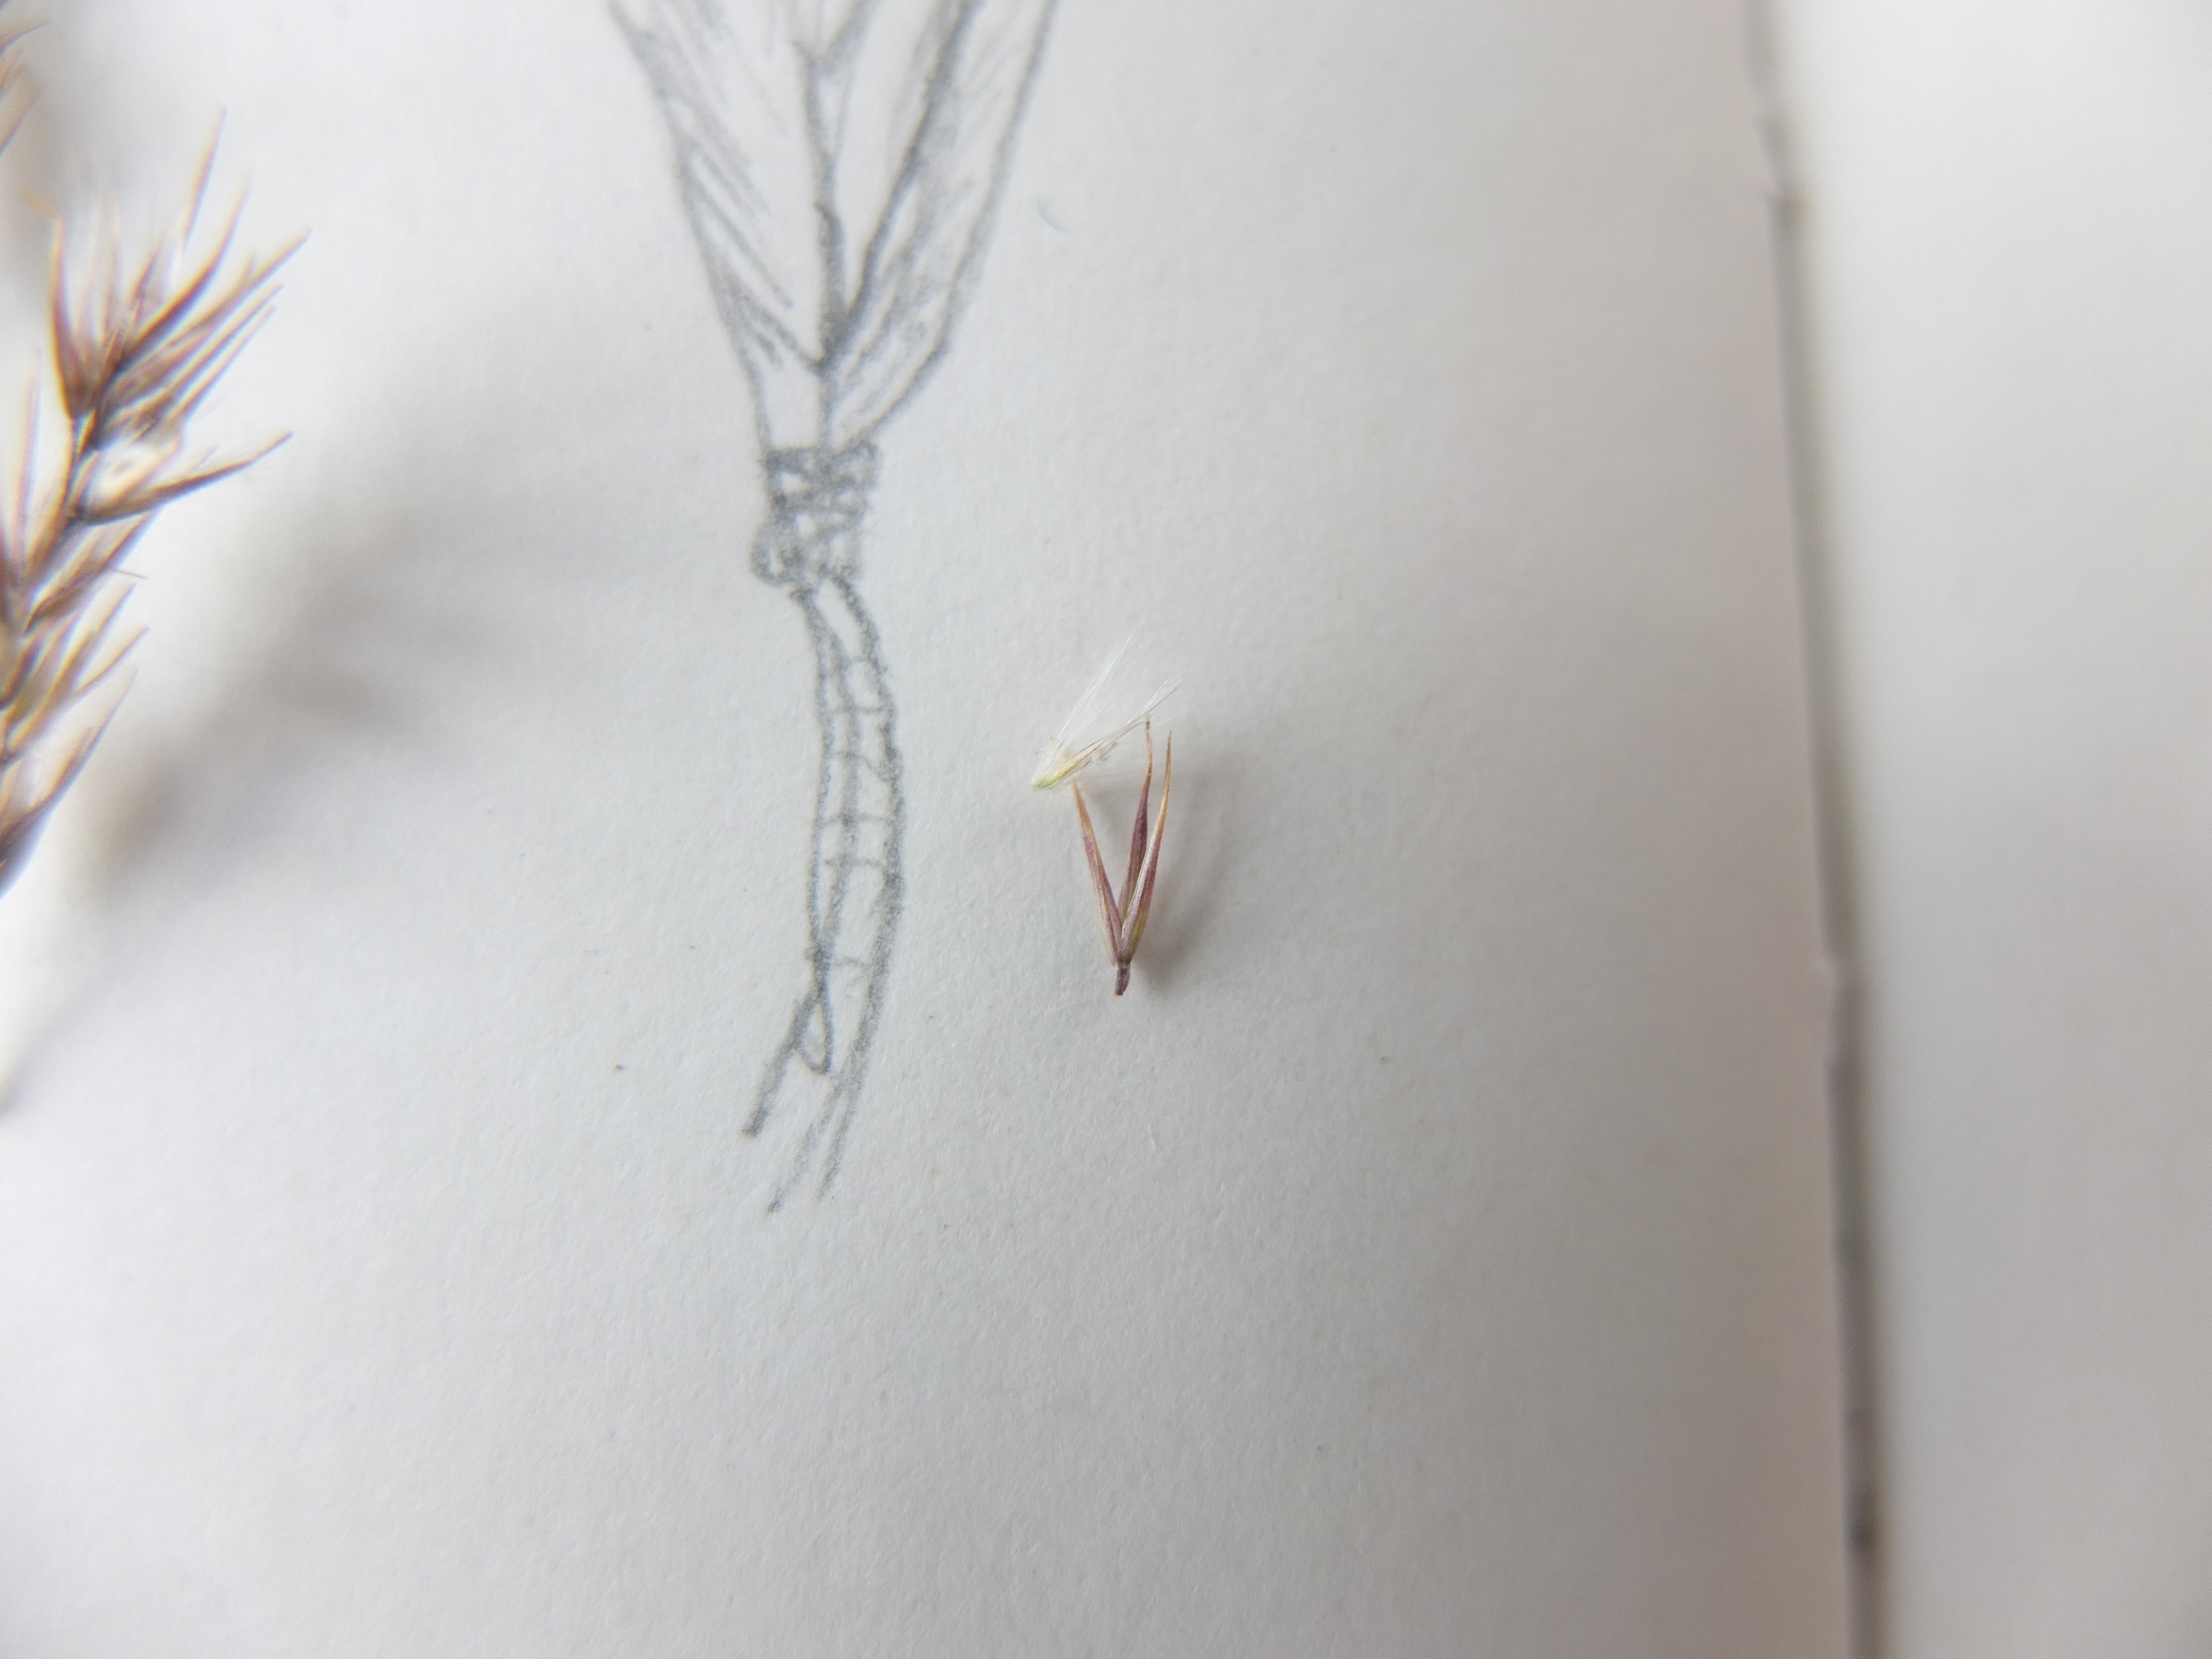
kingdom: Plantae
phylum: Tracheophyta
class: Liliopsida
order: Poales
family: Poaceae
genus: Calamagrostis
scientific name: Calamagrostis epigejos
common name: Bjerg-rørhvene
